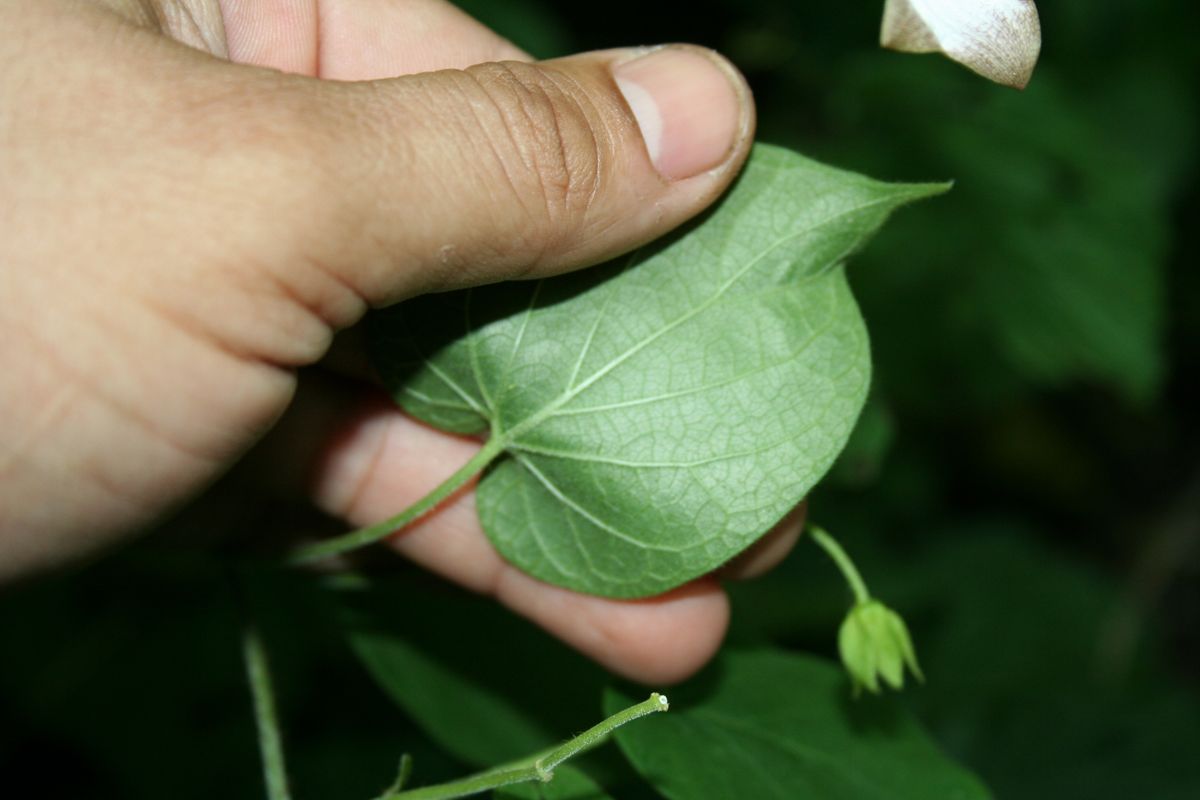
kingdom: Plantae
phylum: Tracheophyta
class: Magnoliopsida
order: Gentianales
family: Apocynaceae
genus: Polystemma
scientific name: Polystemma guatemalense
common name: Arborescente rattan
